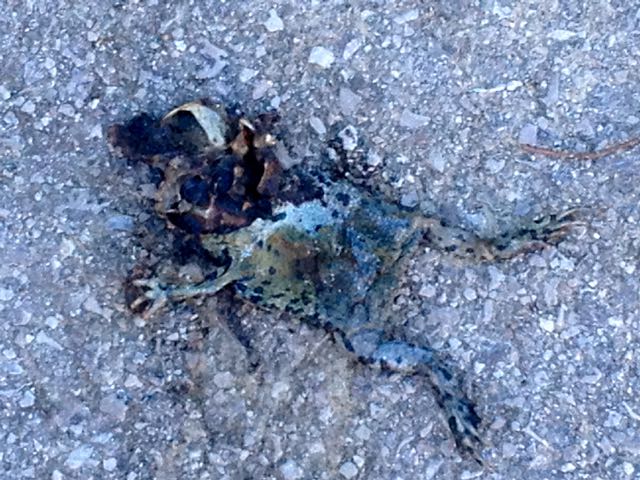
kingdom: Animalia
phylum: Chordata
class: Amphibia
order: Anura
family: Bufonidae
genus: Bufotes
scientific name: Bufotes viridis
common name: European green toad
